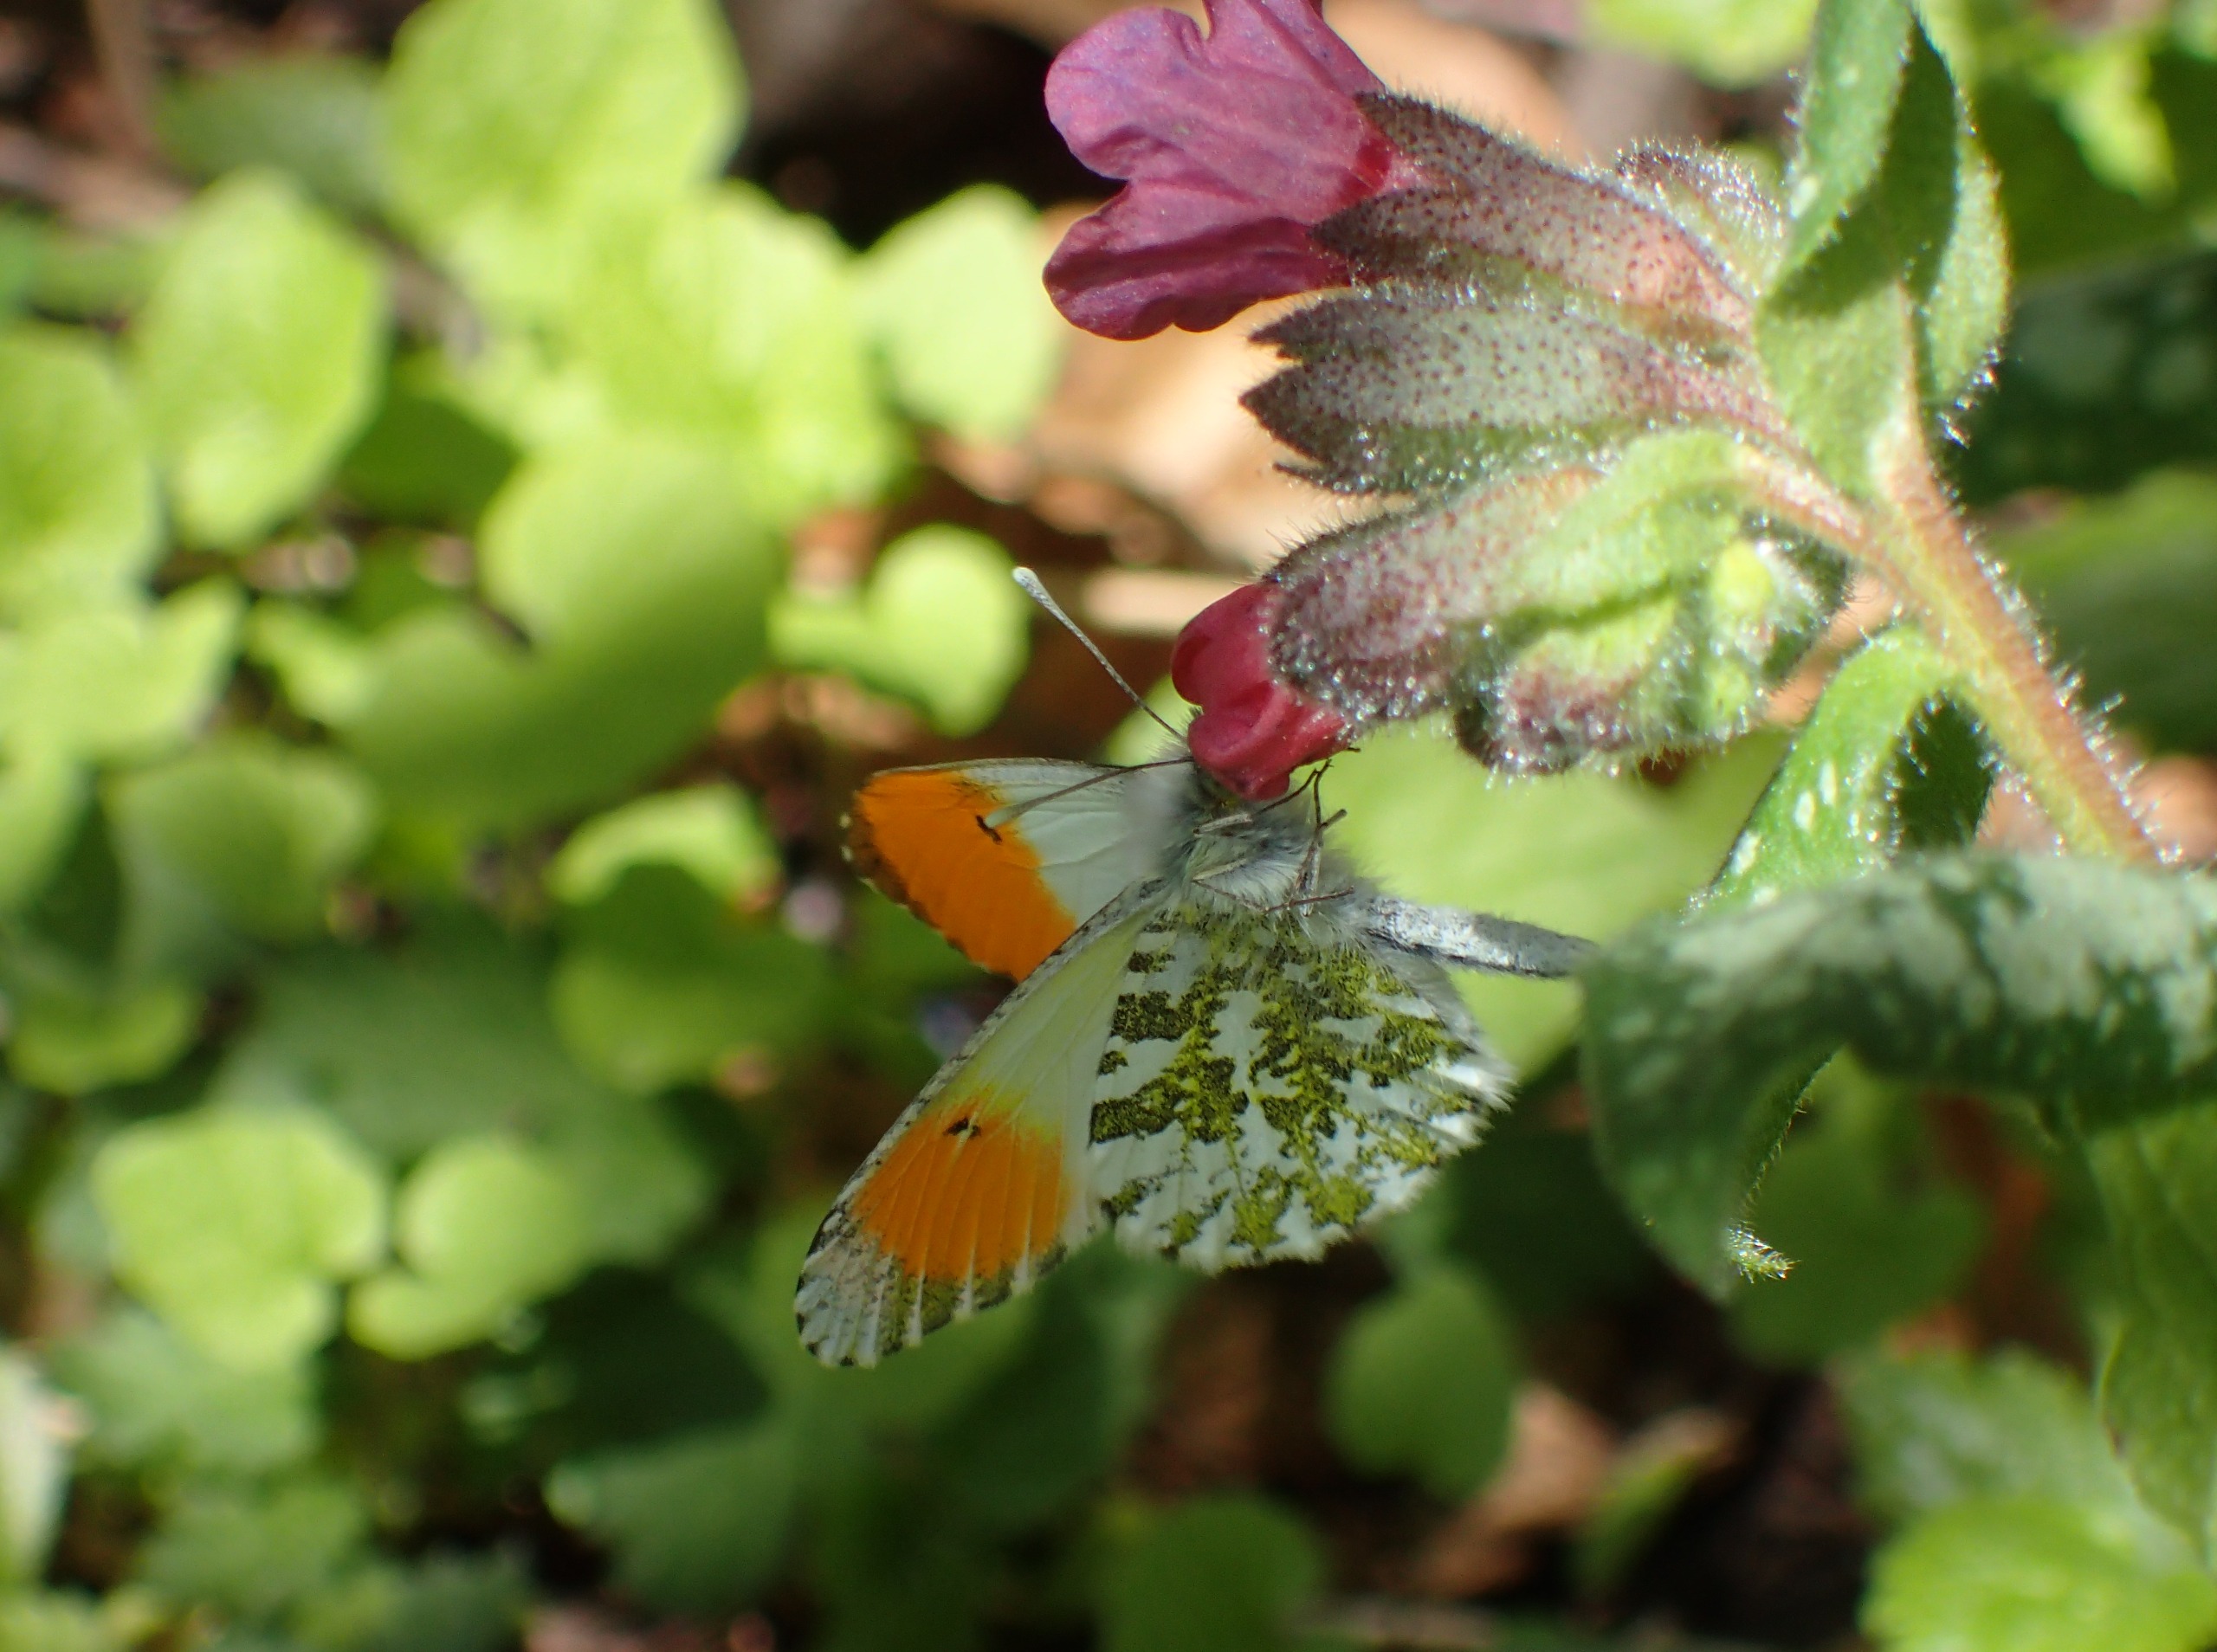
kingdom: Animalia
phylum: Arthropoda
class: Insecta
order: Lepidoptera
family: Pieridae
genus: Anthocharis
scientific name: Anthocharis cardamines
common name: Aurora
